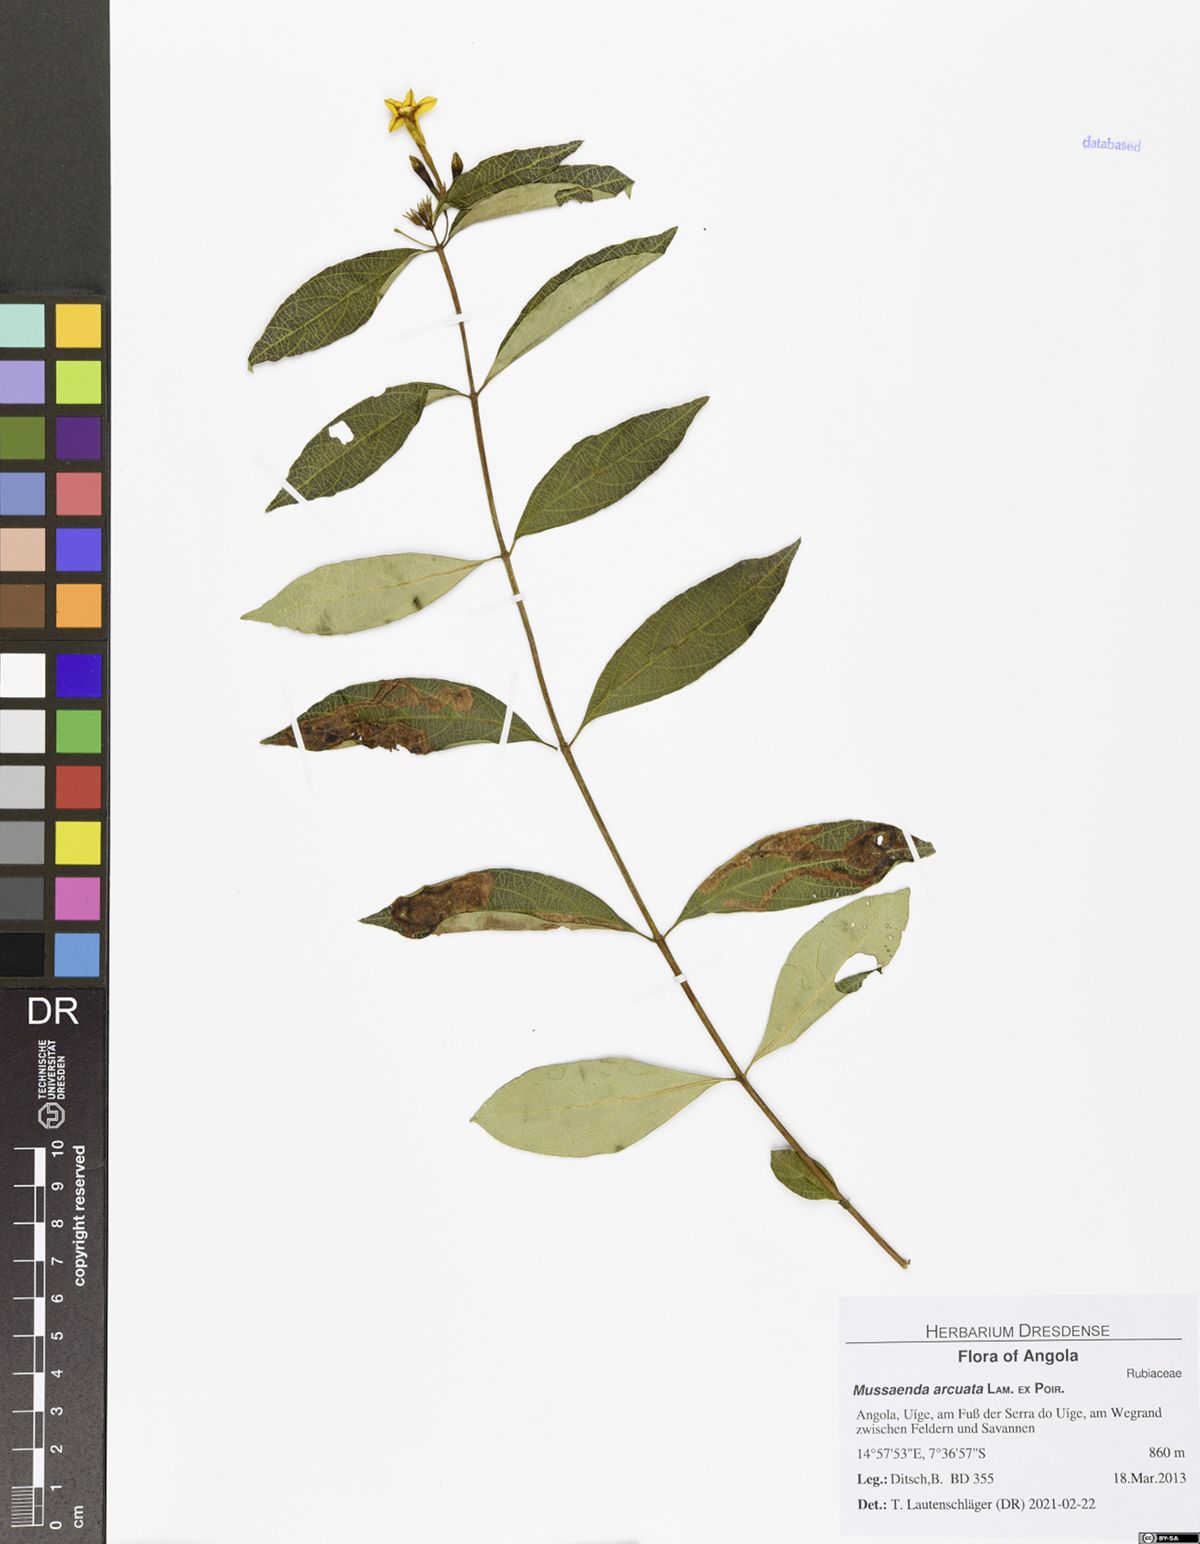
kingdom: Plantae
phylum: Tracheophyta
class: Magnoliopsida
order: Gentianales
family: Rubiaceae
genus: Mussaenda
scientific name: Mussaenda arcuata
